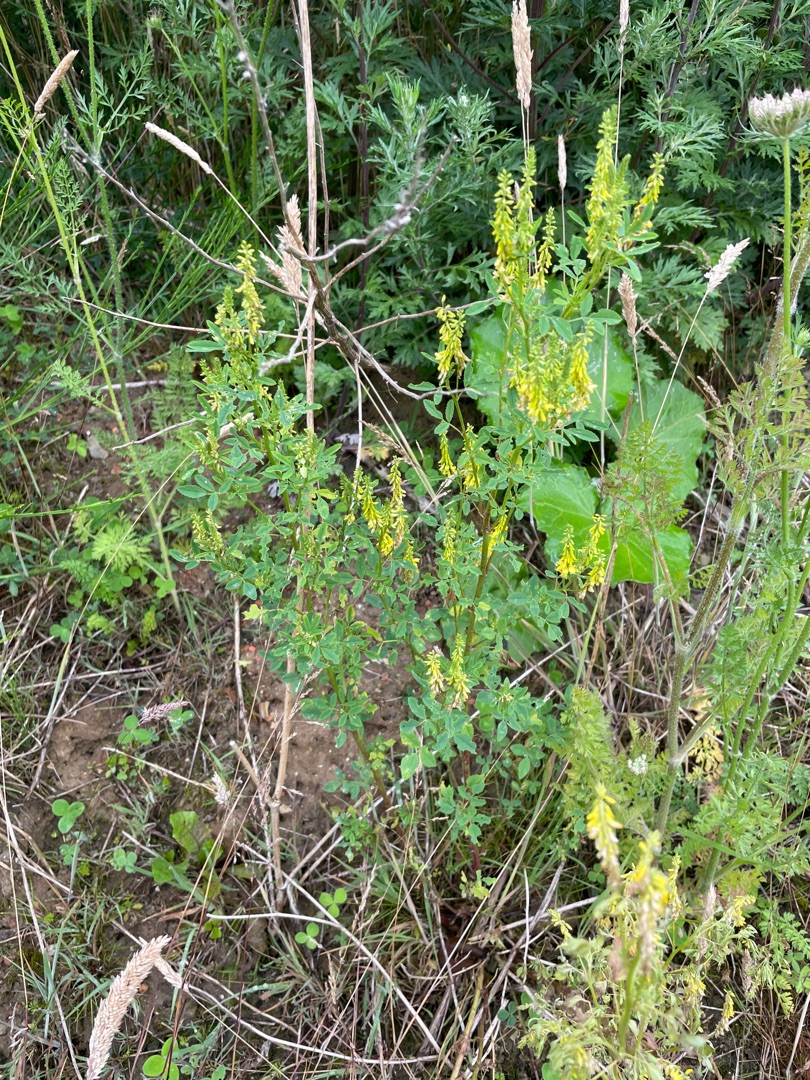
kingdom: Plantae
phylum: Tracheophyta
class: Magnoliopsida
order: Fabales
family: Fabaceae
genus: Melilotus
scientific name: Melilotus
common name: Stenkløverslægten
